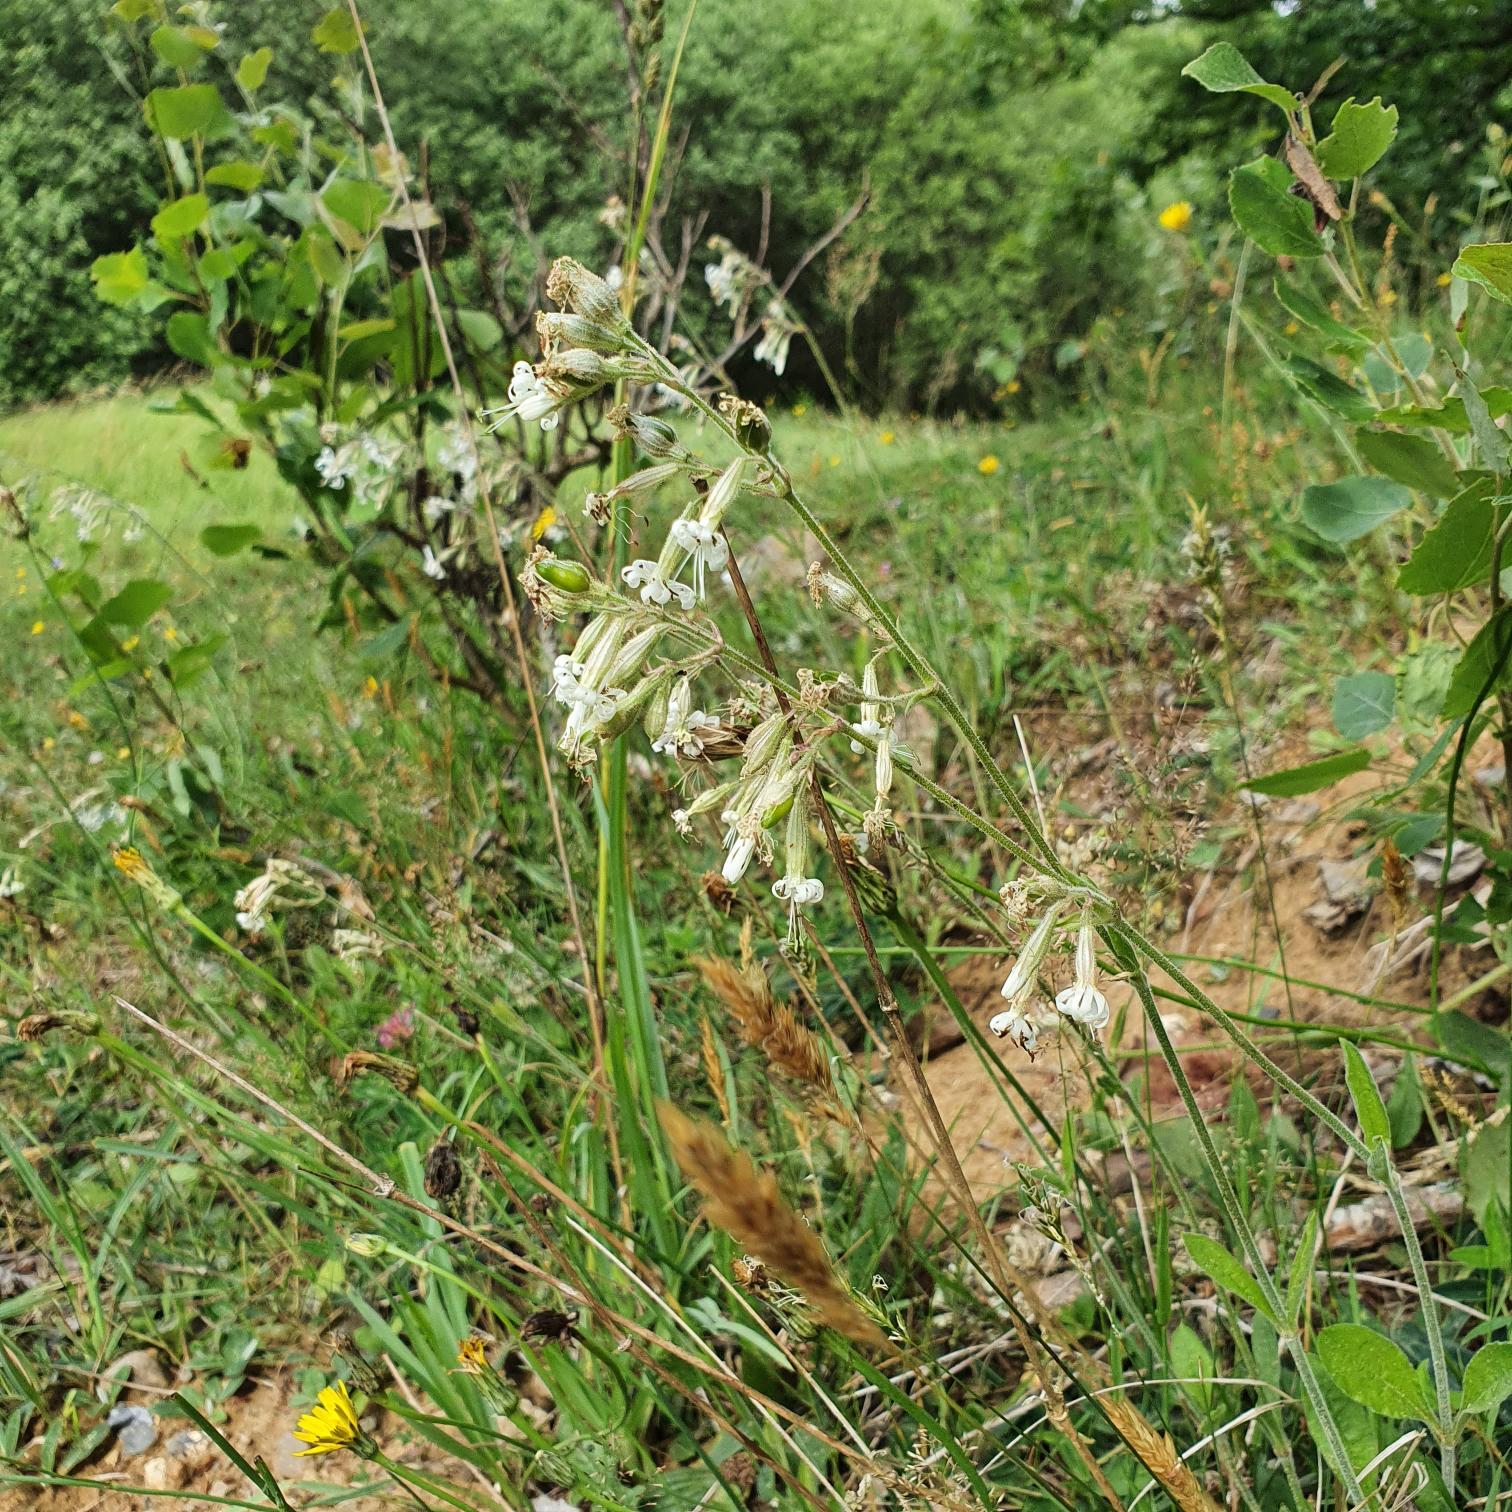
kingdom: Plantae
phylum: Tracheophyta
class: Magnoliopsida
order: Caryophyllales
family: Caryophyllaceae
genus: Silene
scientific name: Silene nutans
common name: Nikkende limurt
